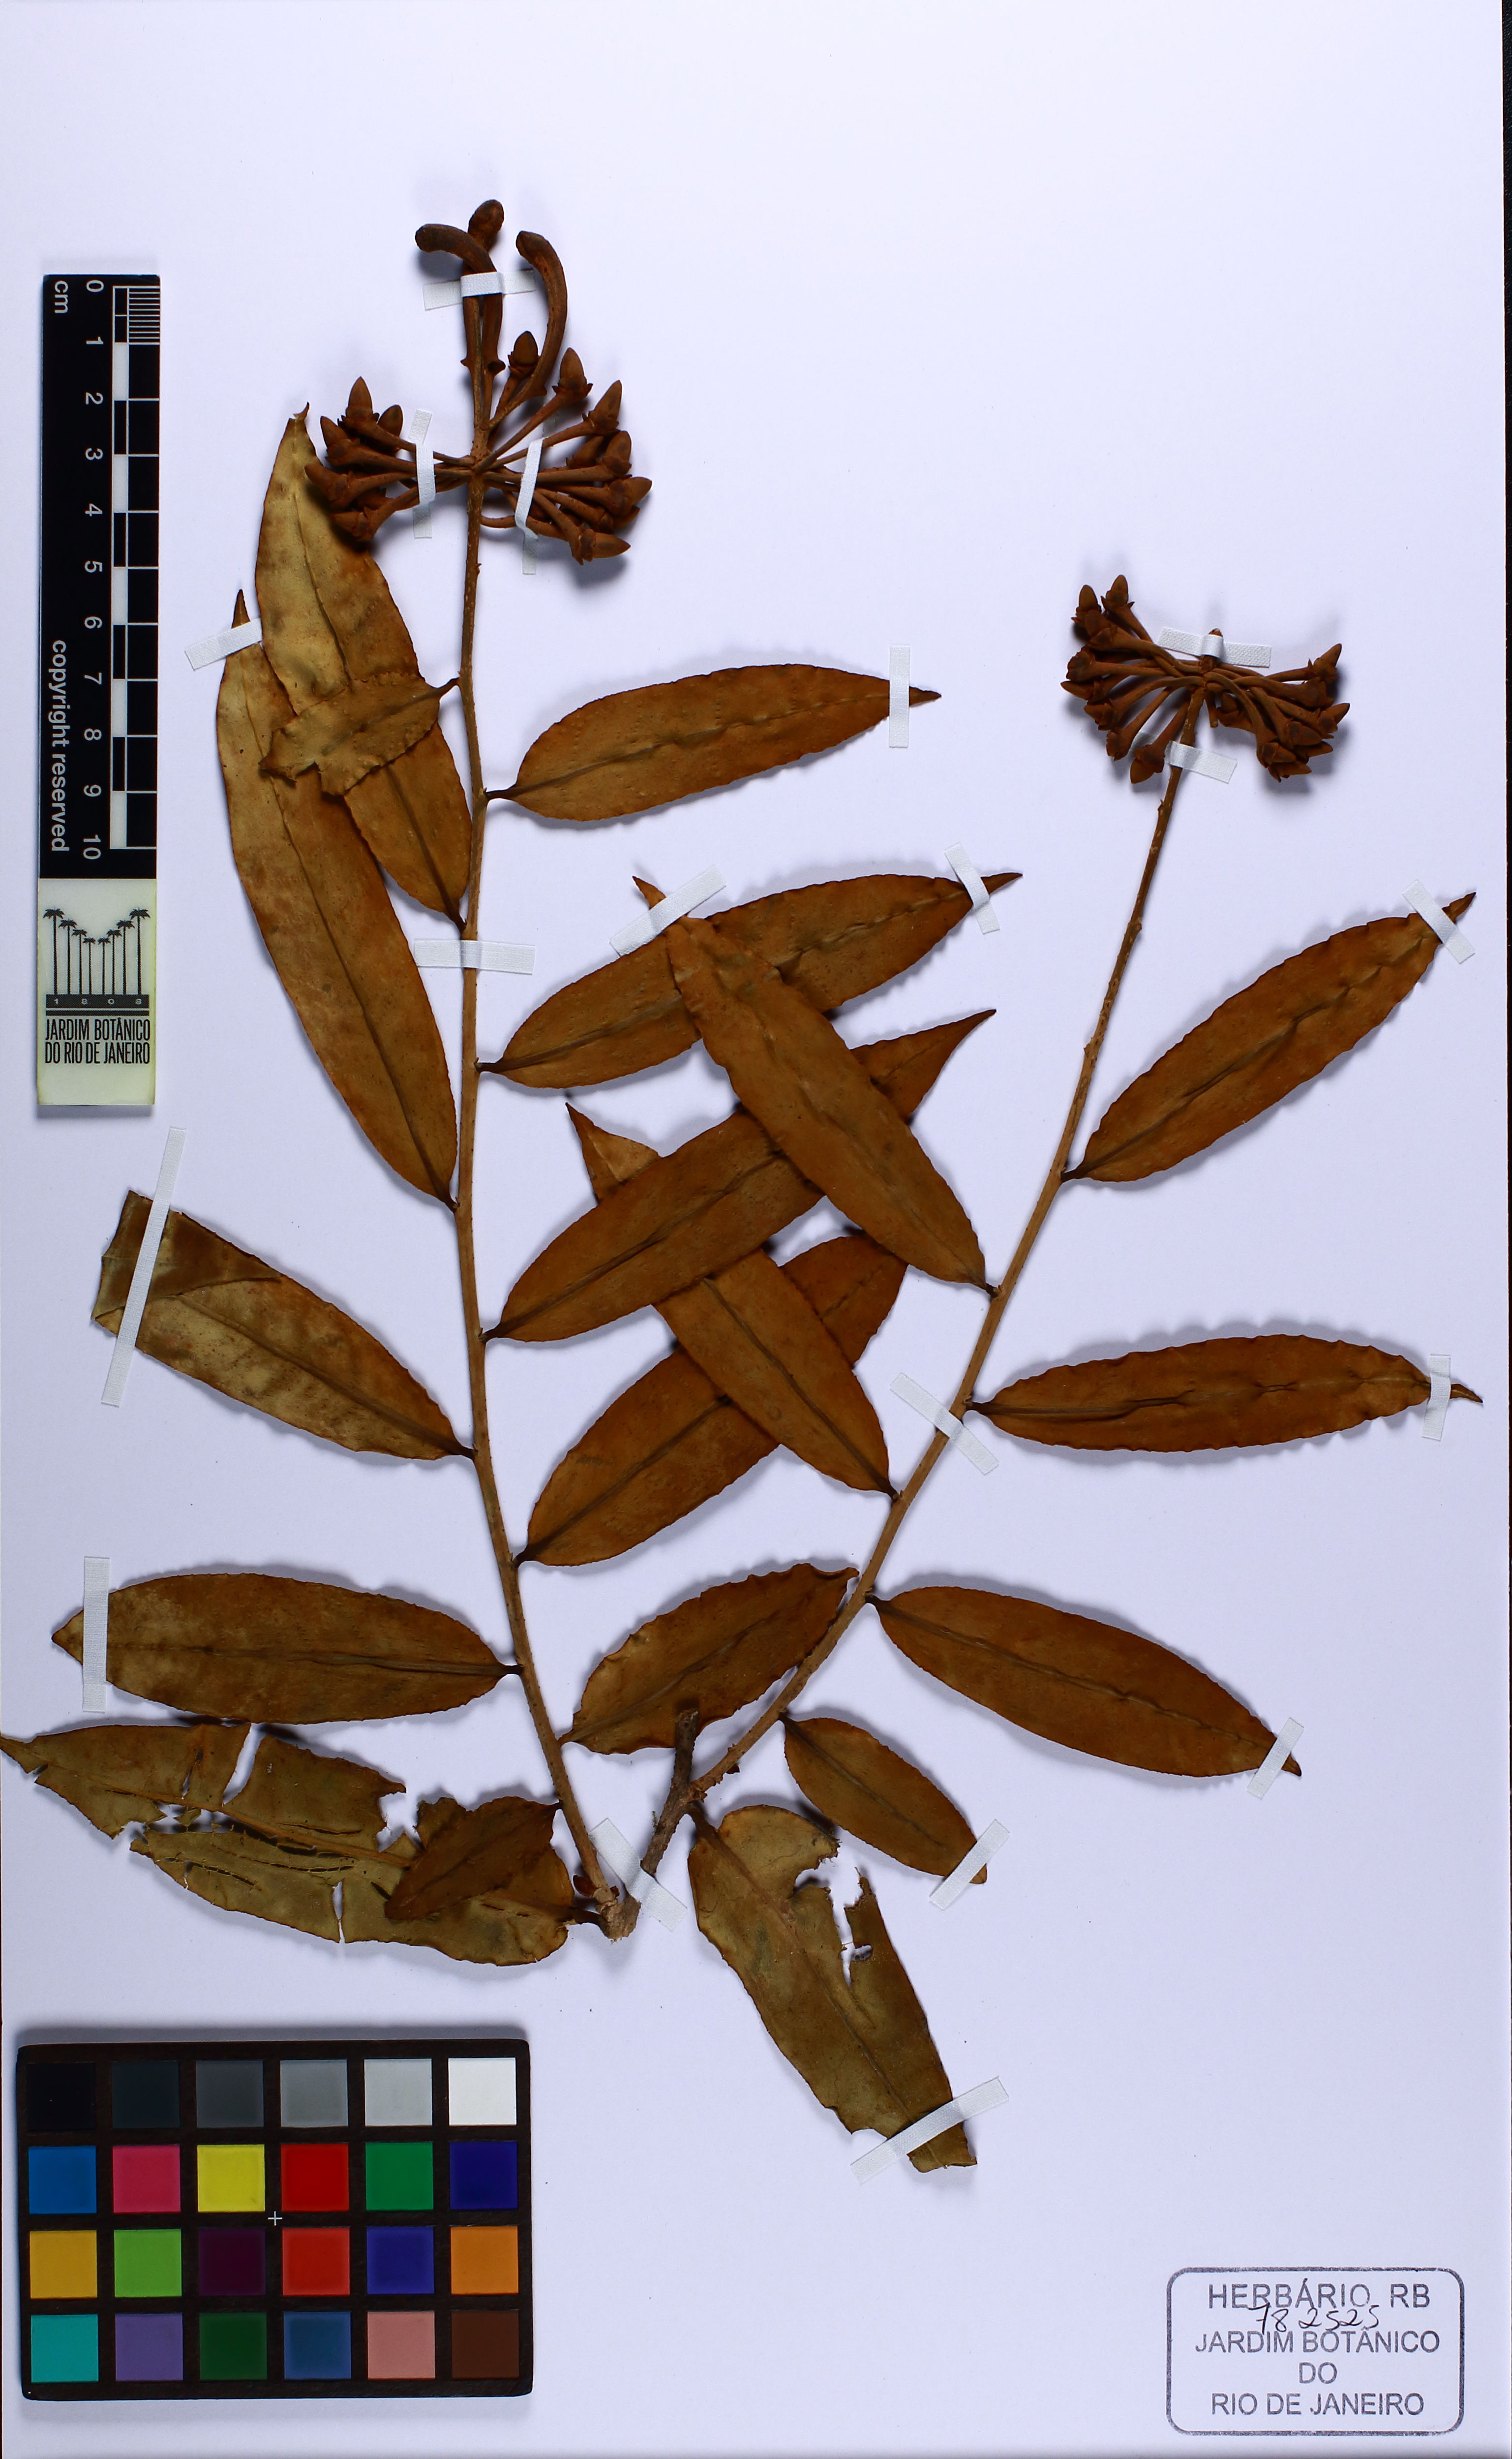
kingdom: Plantae
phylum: Tracheophyta
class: Magnoliopsida
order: Ericales
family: Marcgraviaceae
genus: Marcgravia
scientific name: Marcgravia coriacea
